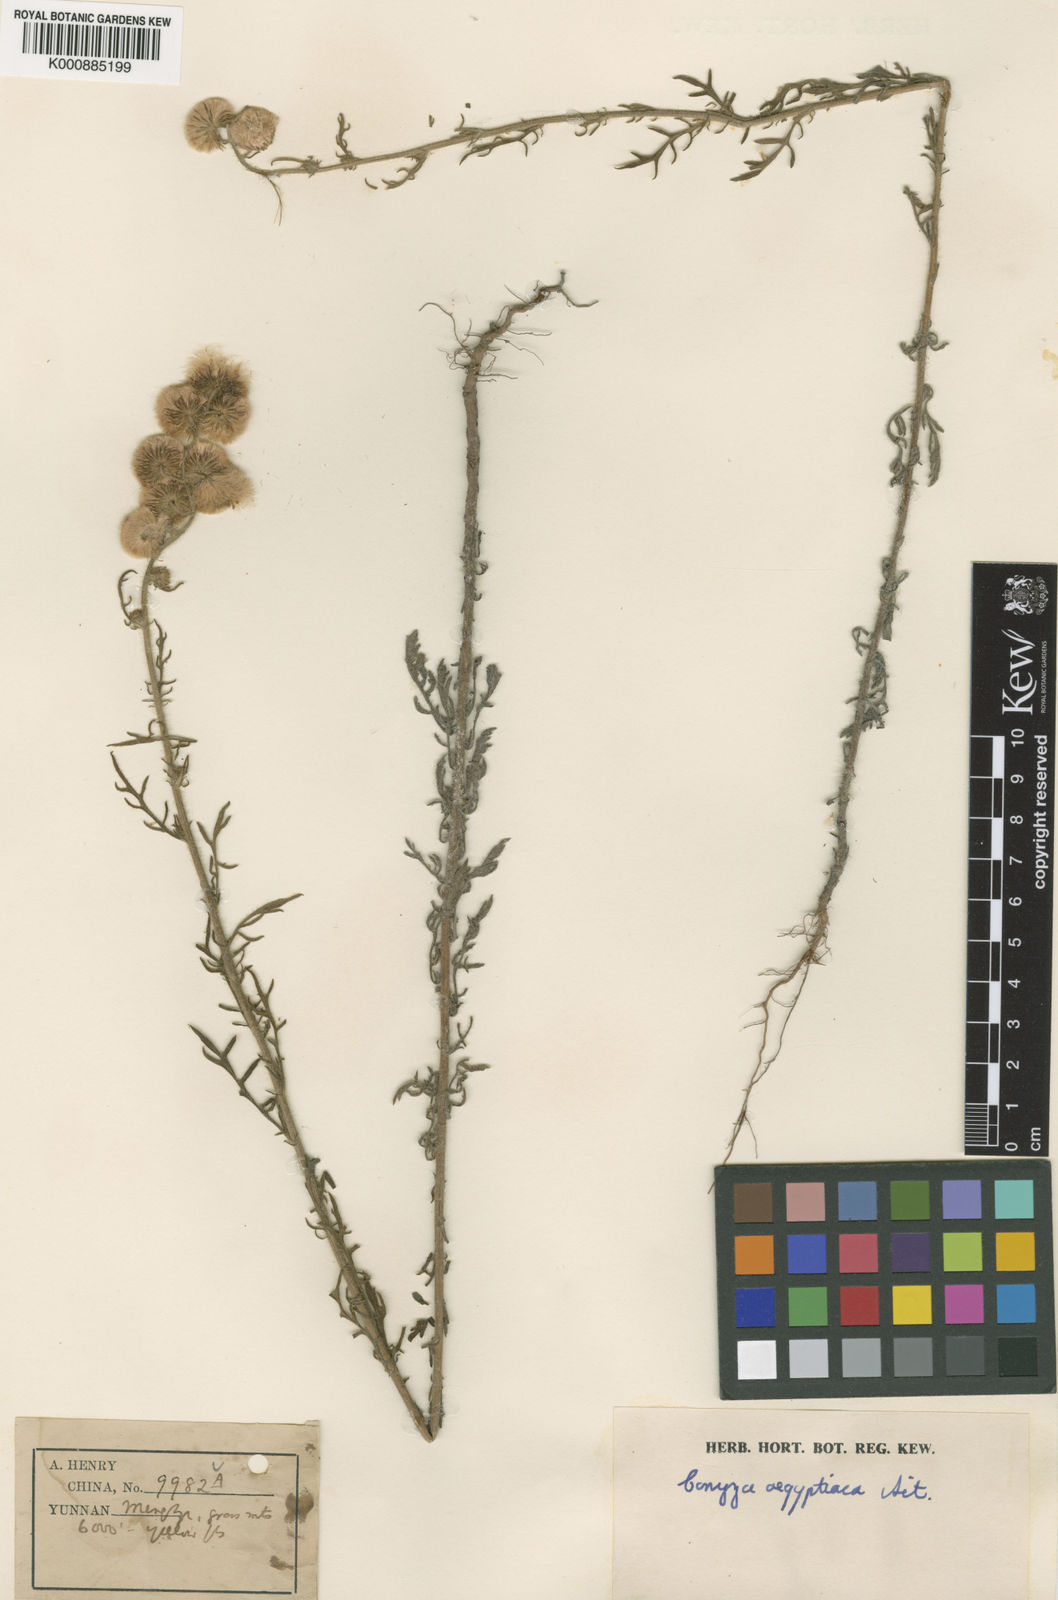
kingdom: Plantae
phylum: Tracheophyta
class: Magnoliopsida
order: Asterales
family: Asteraceae
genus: Nidorella
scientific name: Nidorella pinnatifida
